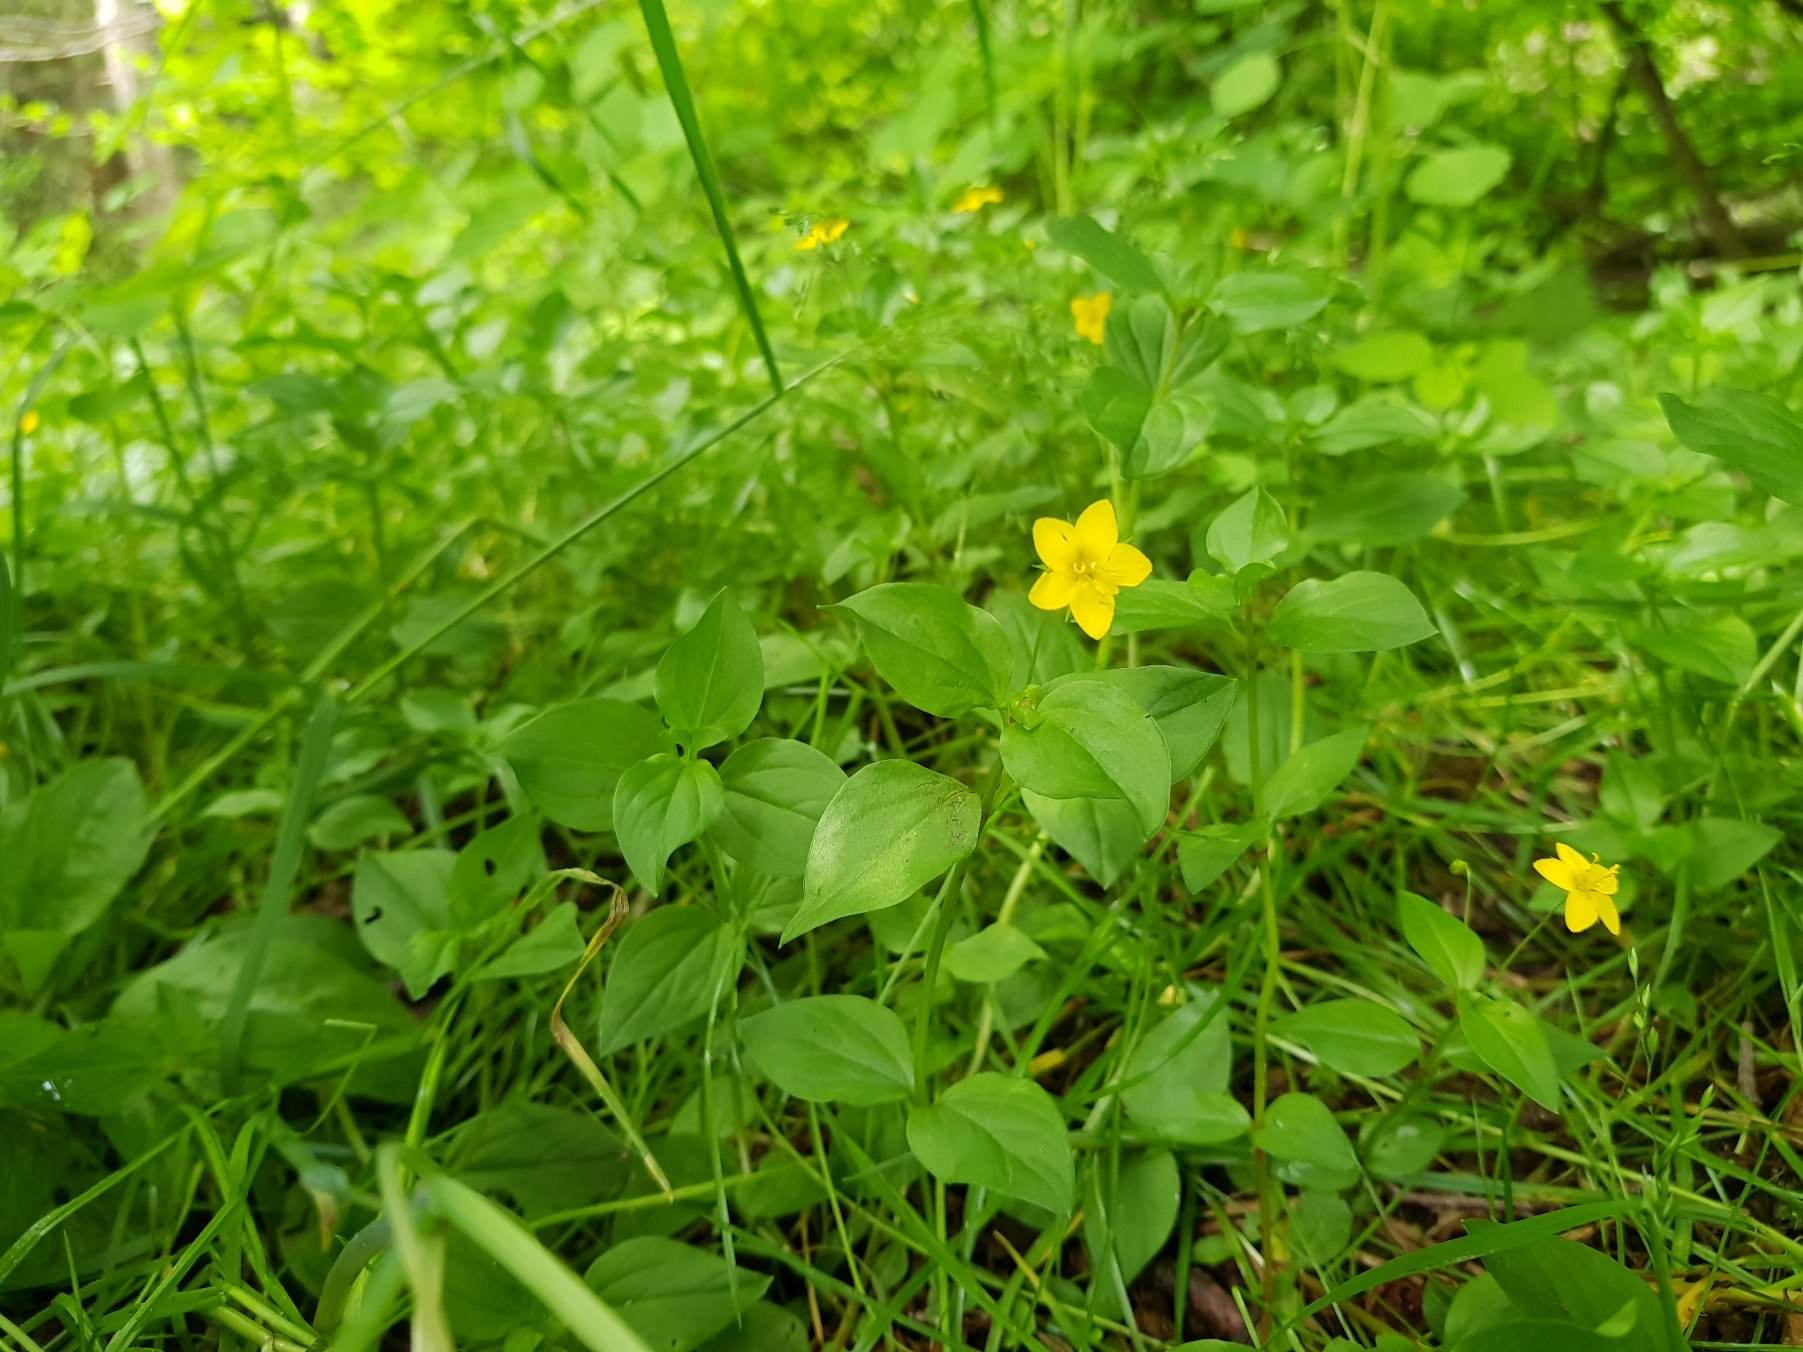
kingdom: Plantae
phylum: Tracheophyta
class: Magnoliopsida
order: Ericales
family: Primulaceae
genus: Lysimachia
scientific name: Lysimachia nemorum
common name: Lund-fredløs
